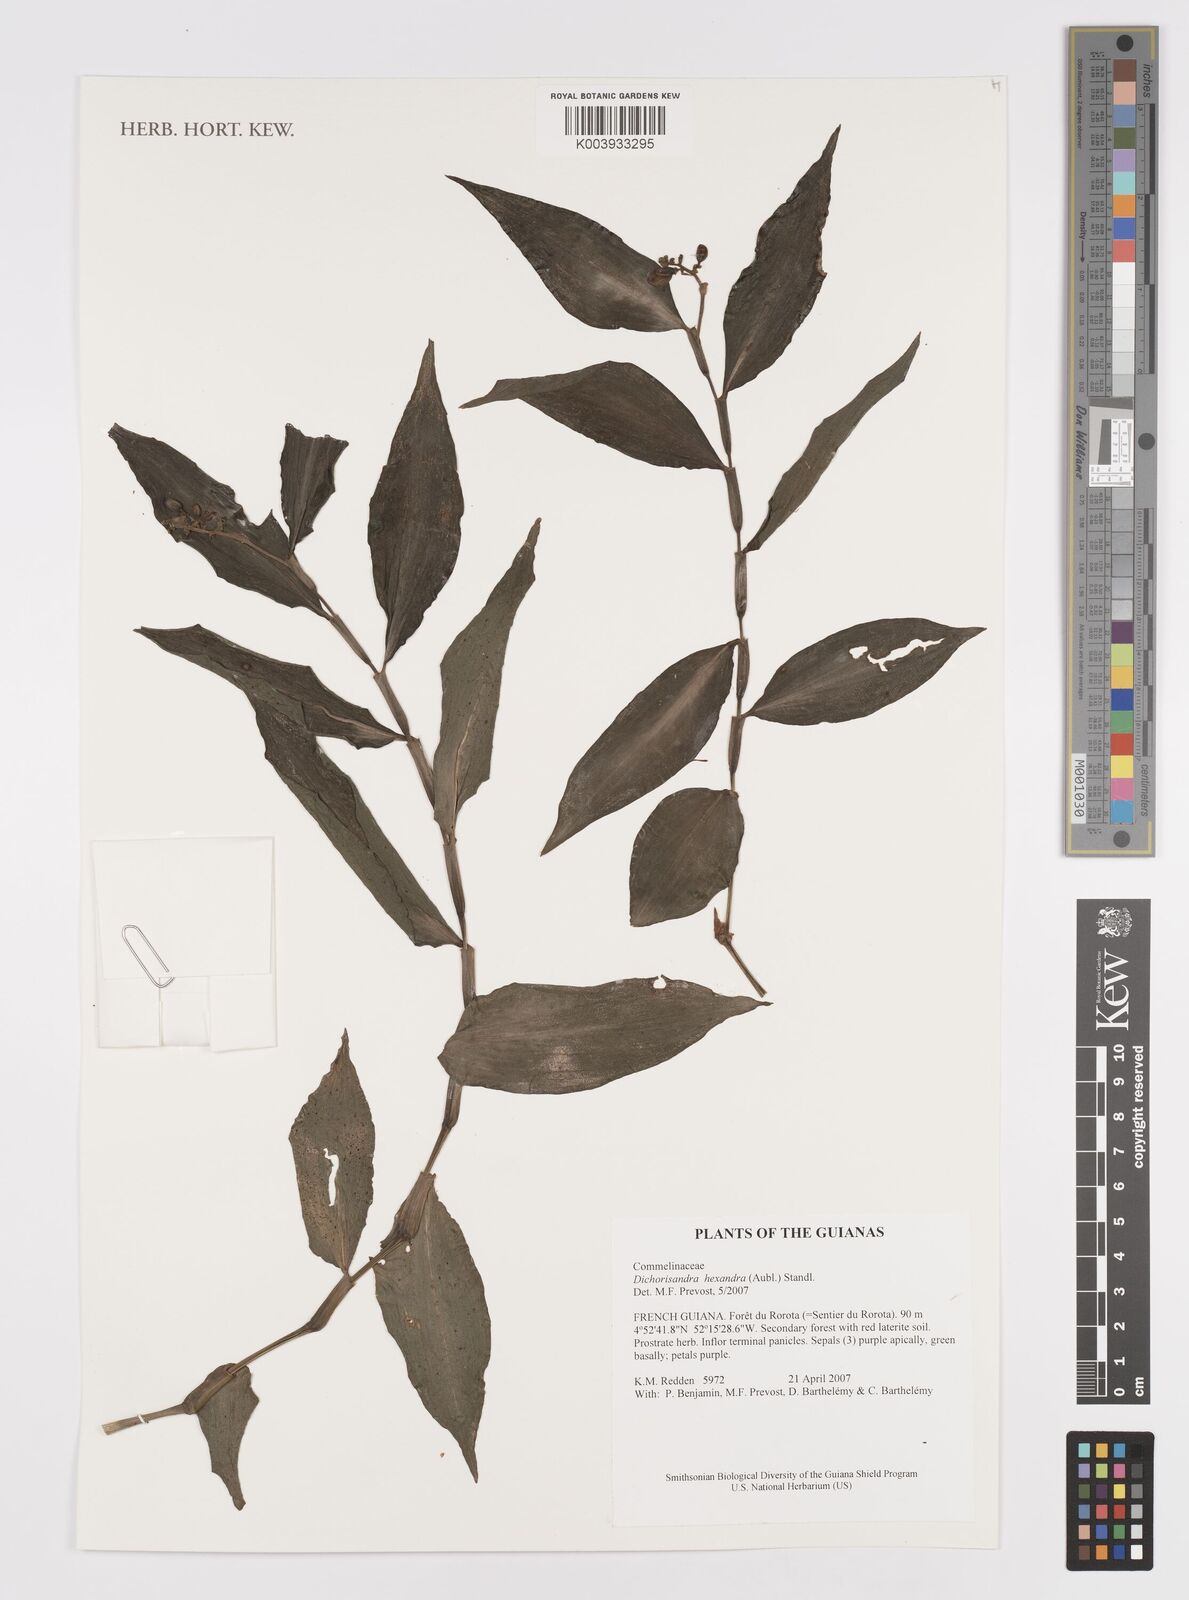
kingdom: Plantae
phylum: Tracheophyta
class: Liliopsida
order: Commelinales
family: Commelinaceae
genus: Dichorisandra
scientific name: Dichorisandra hexandra
